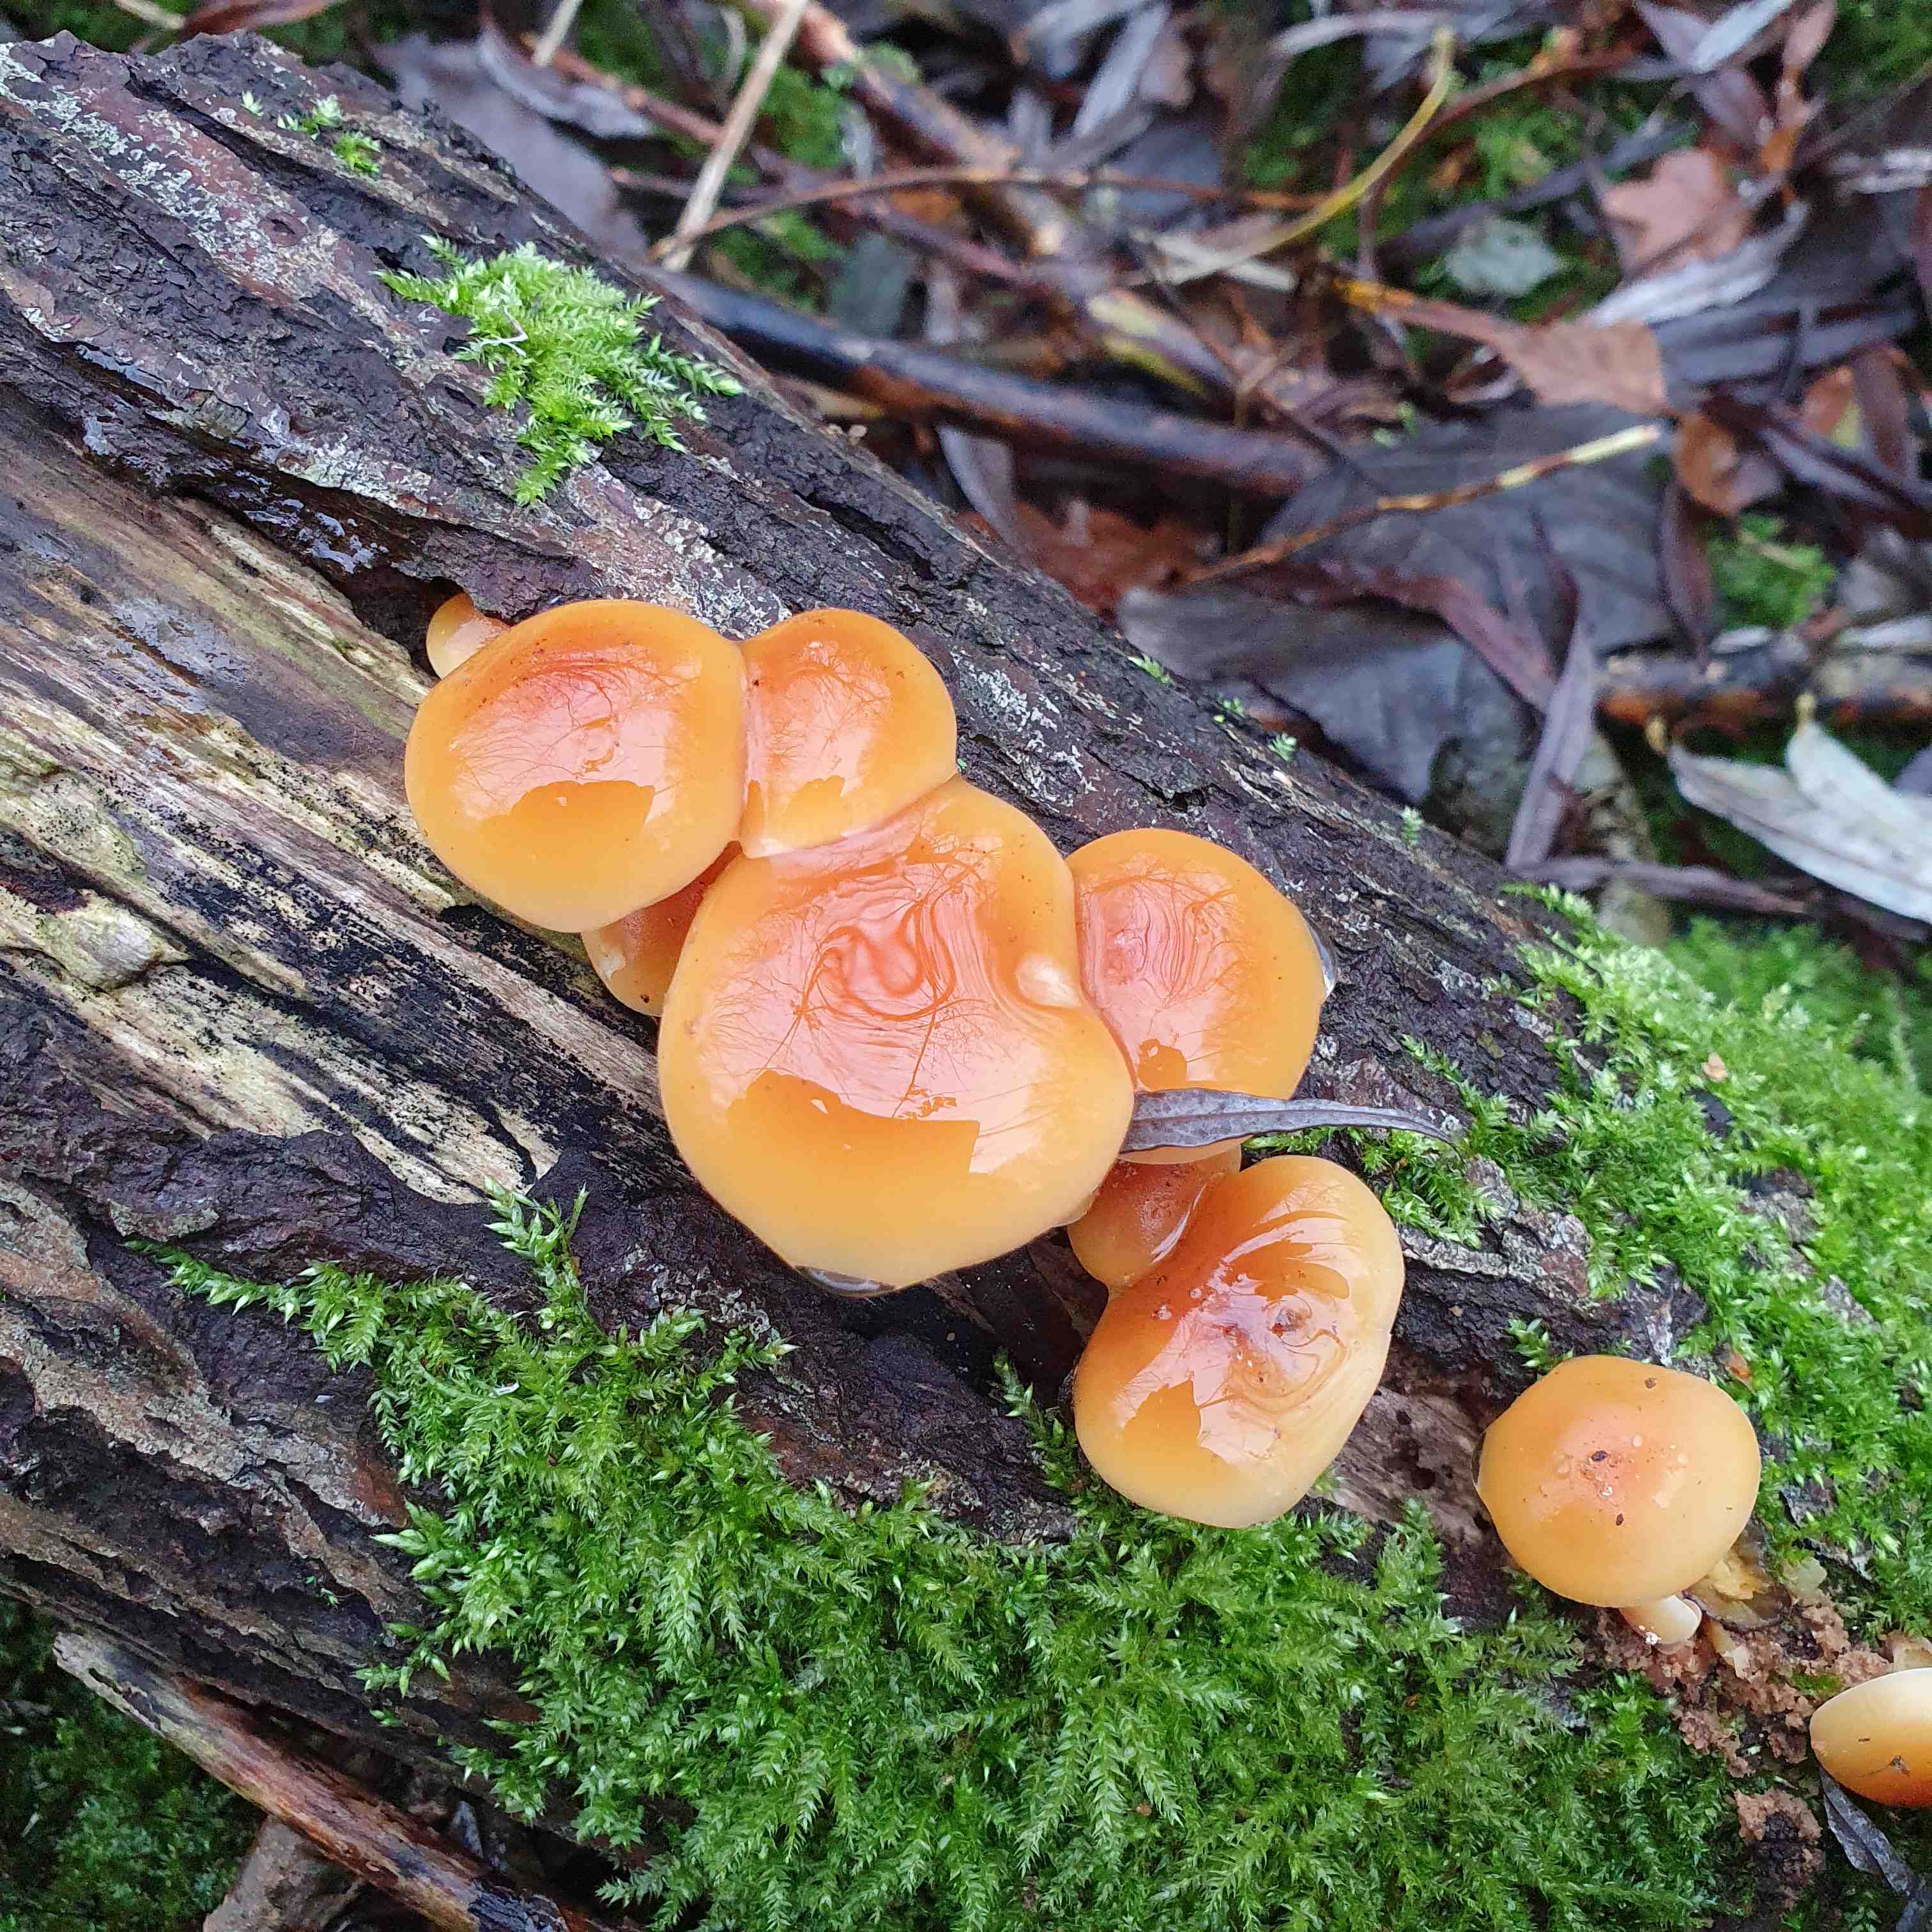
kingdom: Fungi
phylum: Basidiomycota
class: Agaricomycetes
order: Agaricales
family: Physalacriaceae
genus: Flammulina
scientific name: Flammulina
